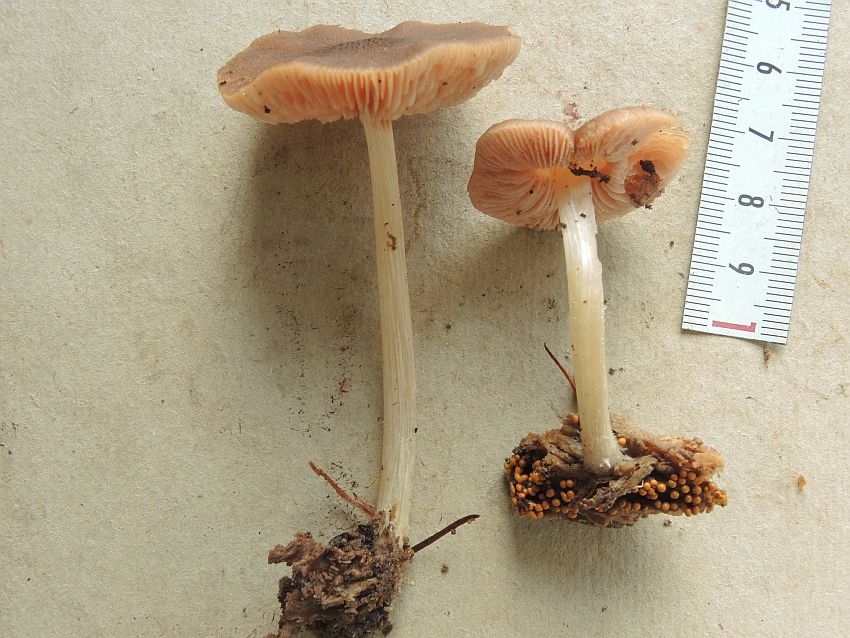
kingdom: Fungi
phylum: Basidiomycota
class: Agaricomycetes
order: Agaricales
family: Pluteaceae
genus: Pluteus
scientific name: Pluteus phlebophorus
